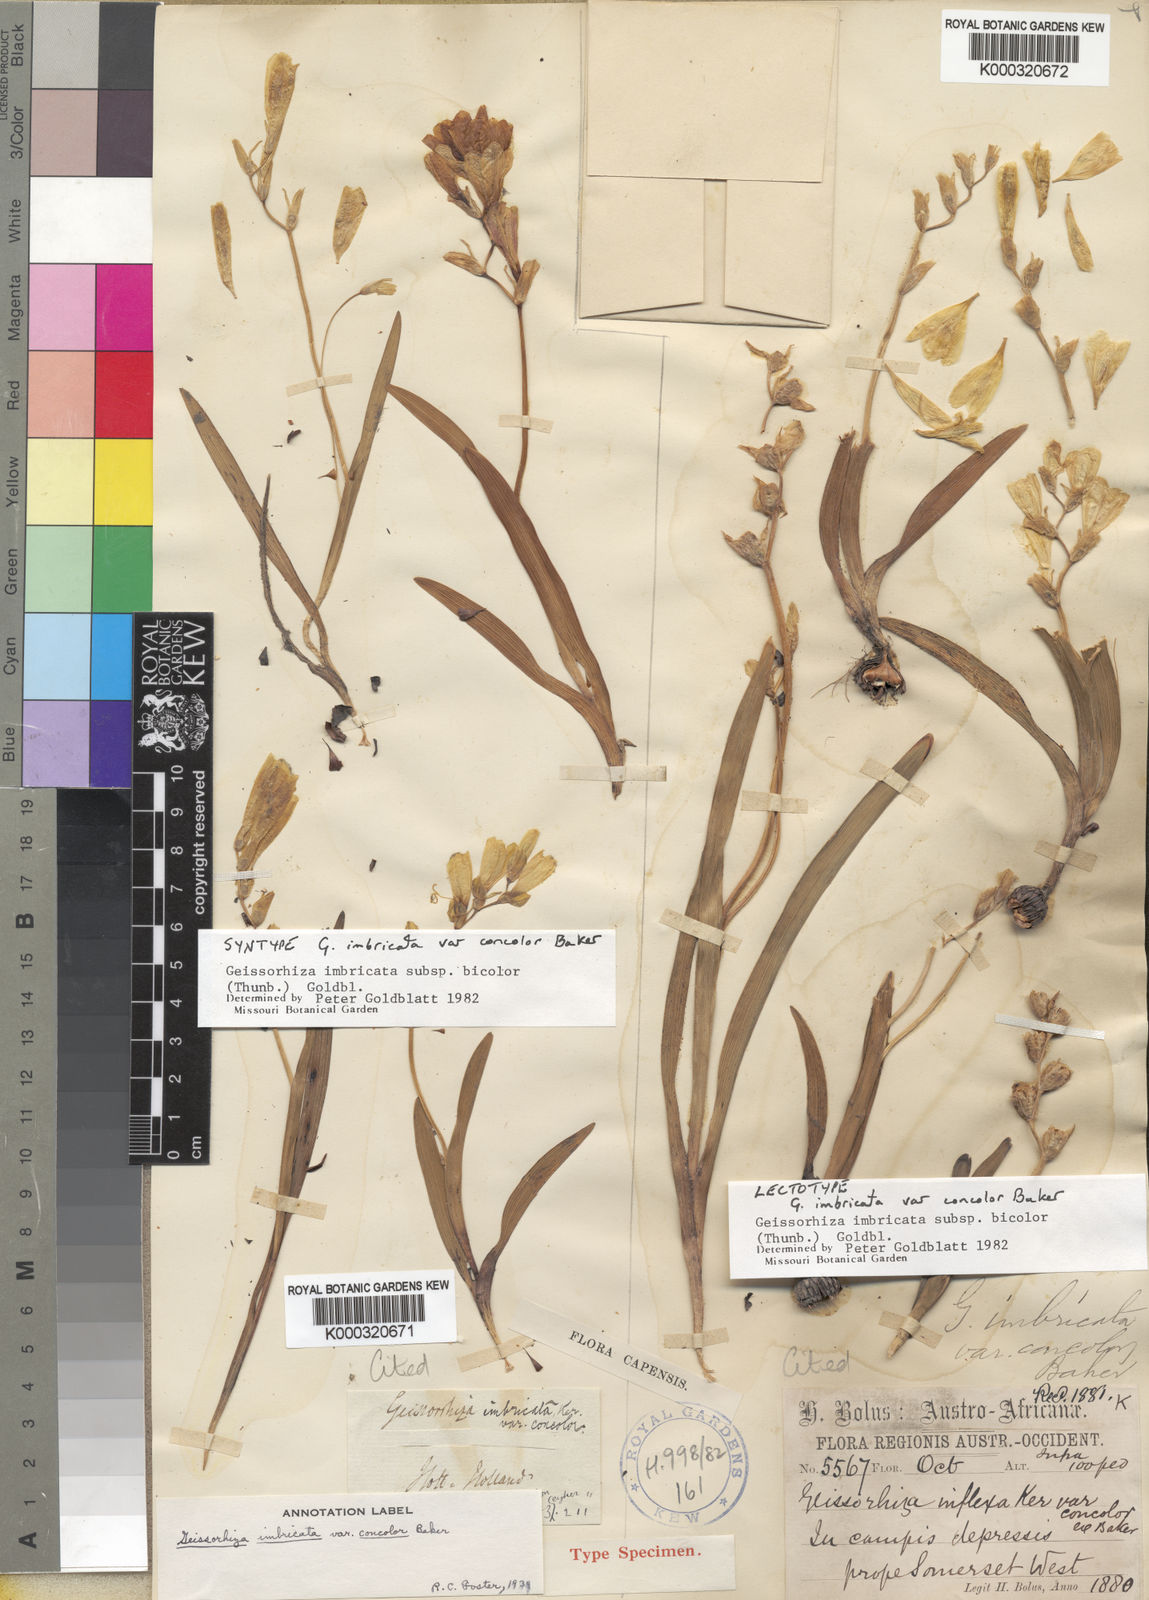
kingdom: Plantae
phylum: Tracheophyta
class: Liliopsida
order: Asparagales
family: Iridaceae
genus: Geissorhiza
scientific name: Geissorhiza imbricata
